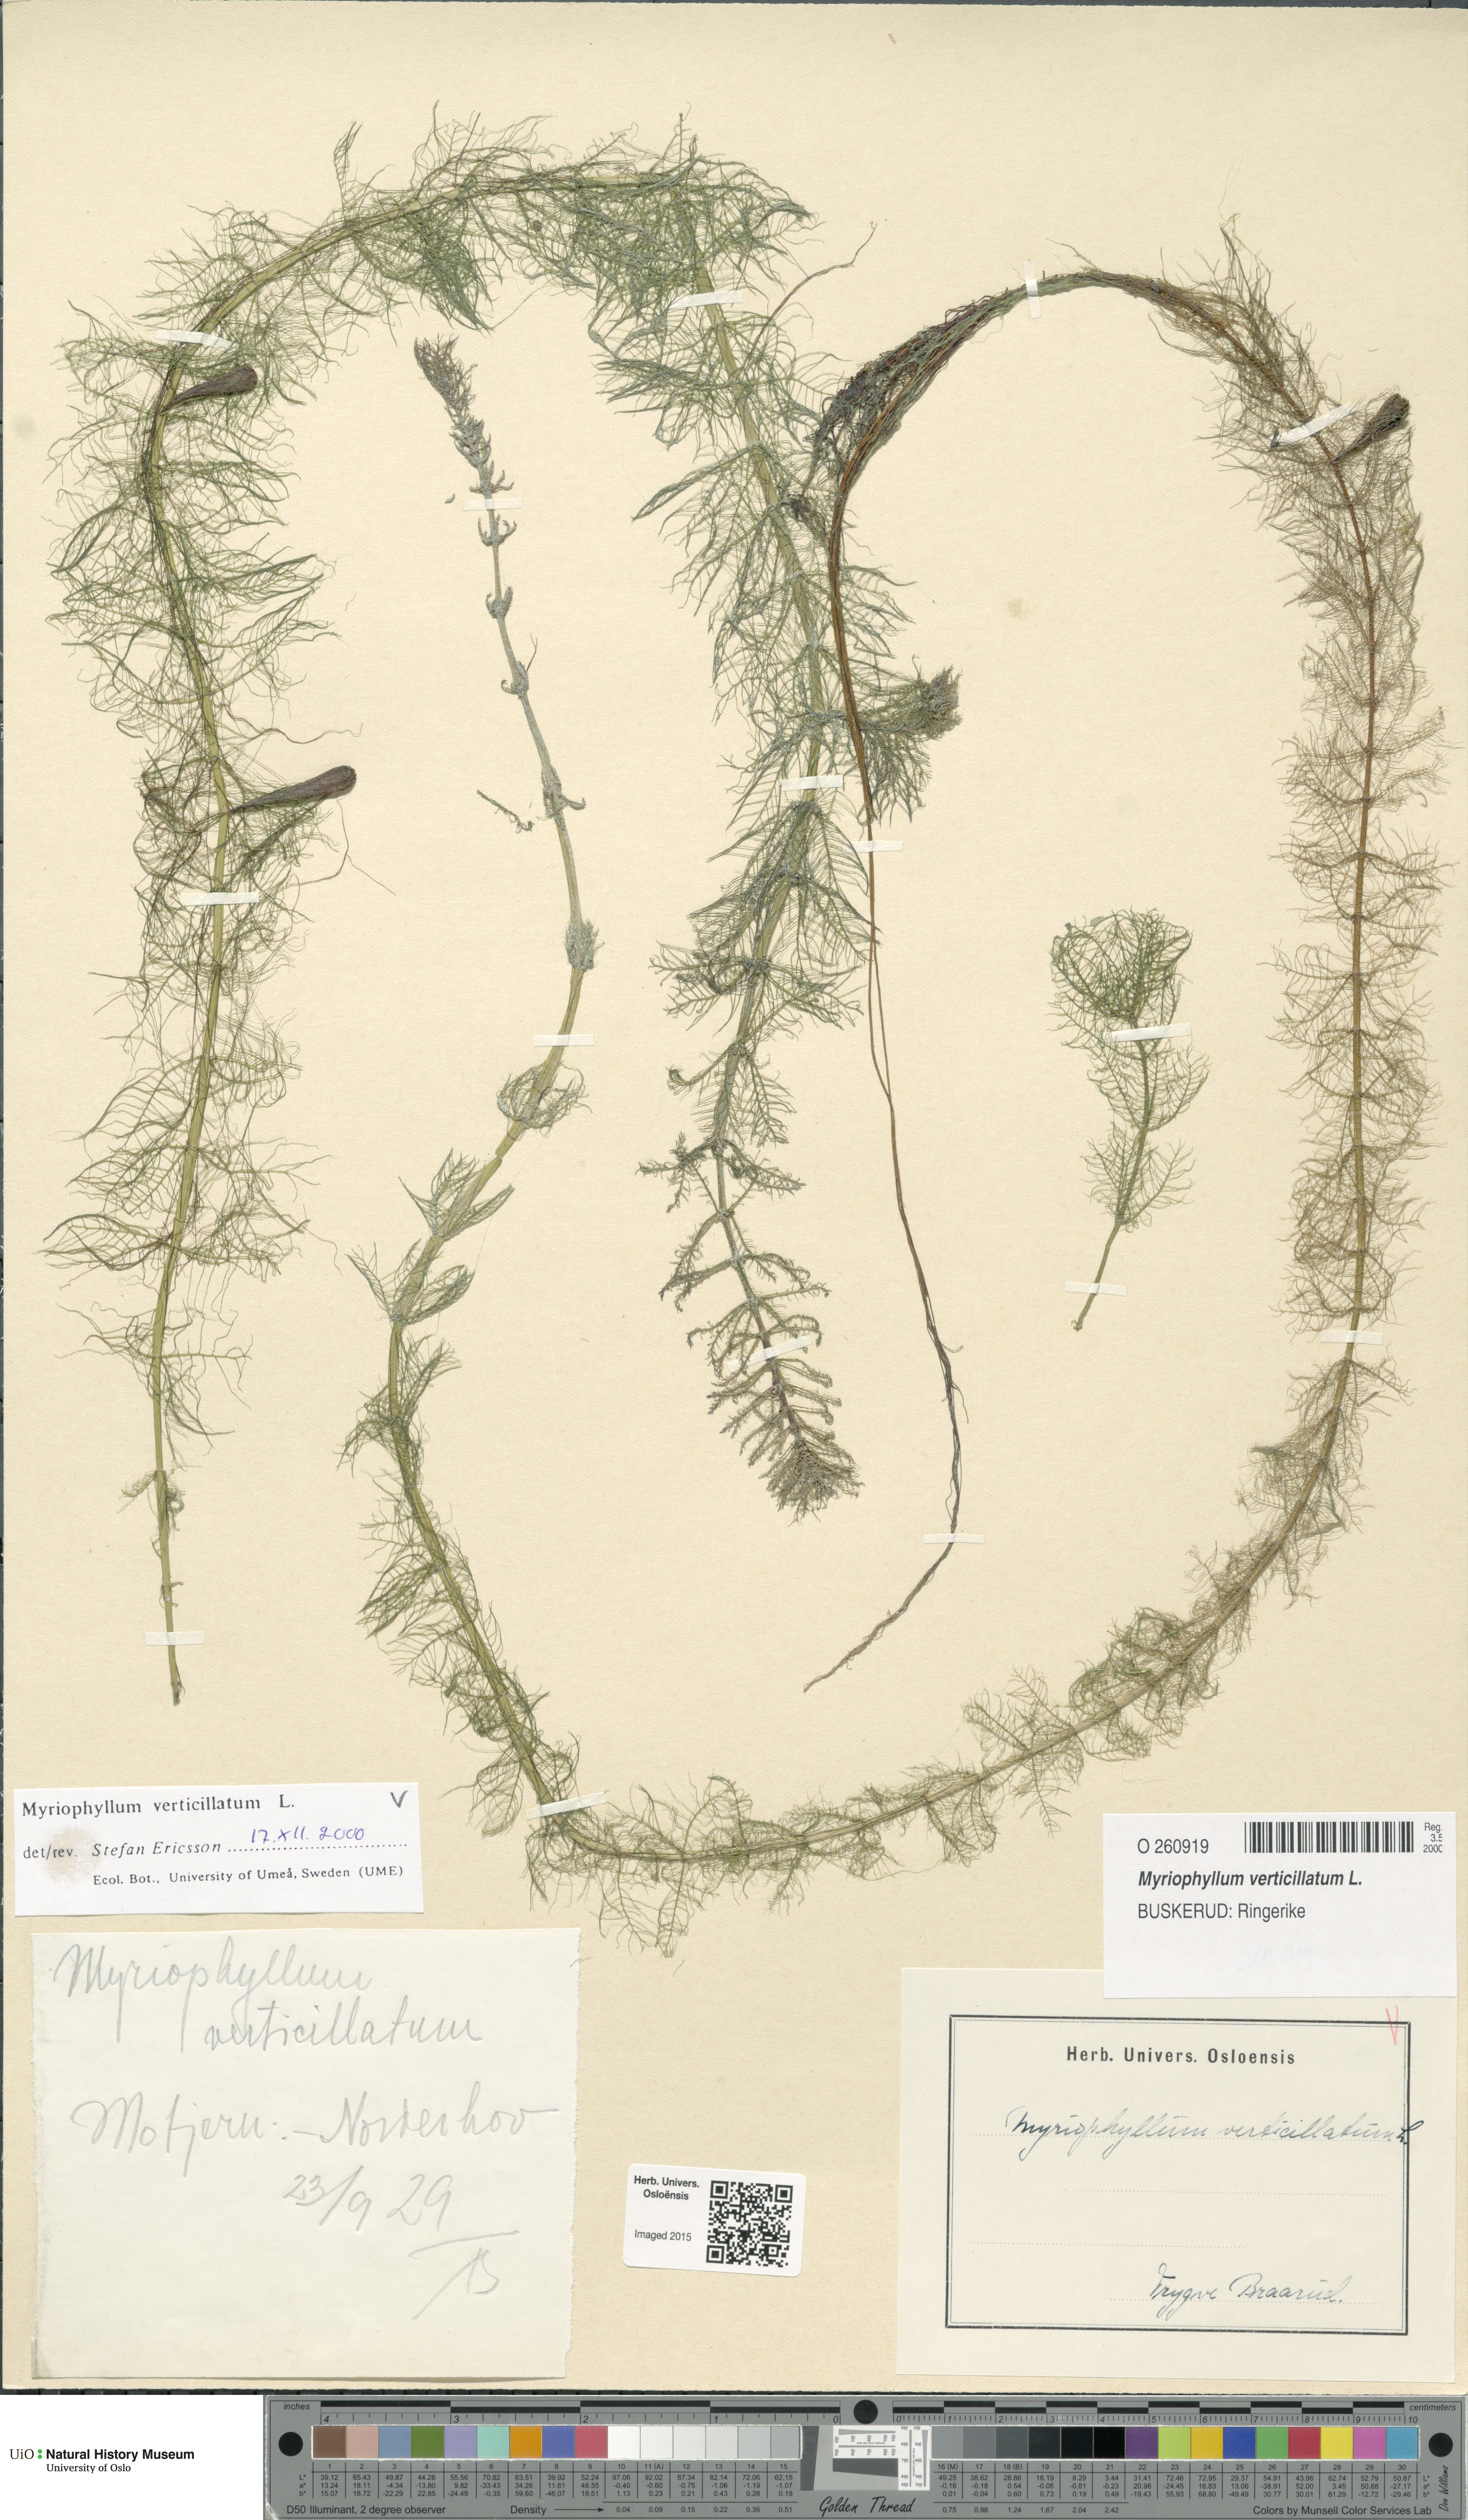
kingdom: Plantae
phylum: Tracheophyta
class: Magnoliopsida
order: Saxifragales
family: Haloragaceae
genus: Myriophyllum
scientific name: Myriophyllum verticillatum
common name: Whorled water-milfoil
